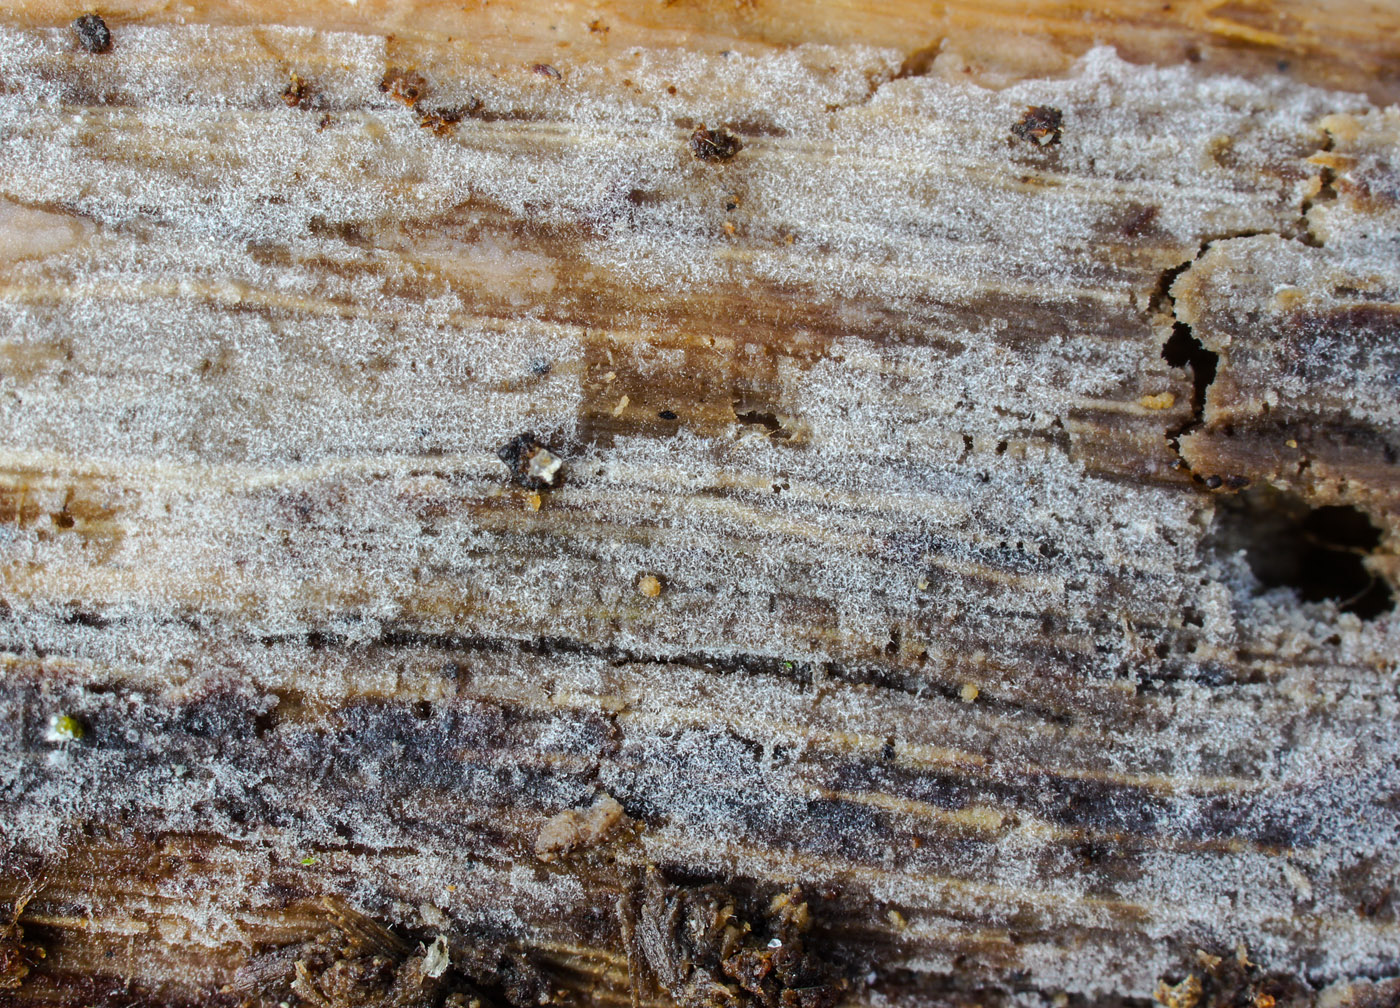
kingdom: Fungi
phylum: Basidiomycota
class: Agaricomycetes
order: Auriculariales
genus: Hauerslevia
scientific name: Hauerslevia pulverulenta
